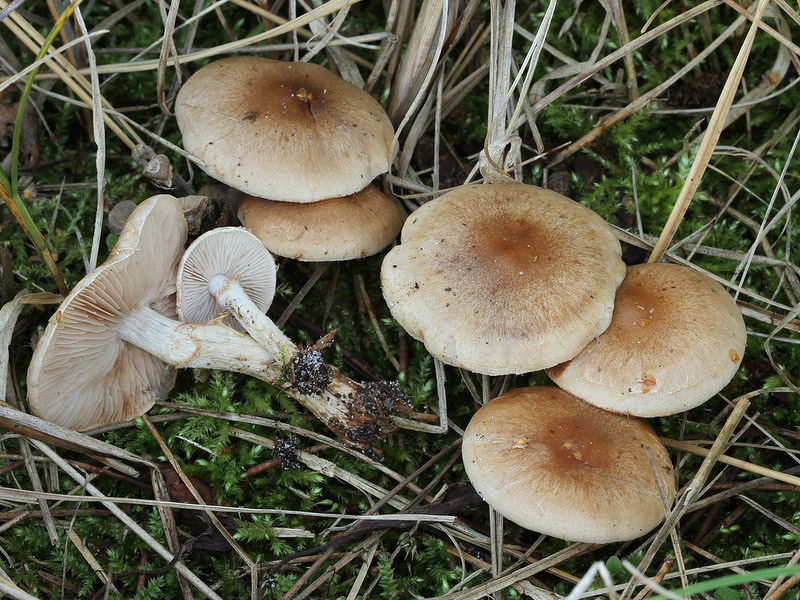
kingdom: Fungi
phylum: Basidiomycota
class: Agaricomycetes
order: Agaricales
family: Hymenogastraceae
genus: Hebeloma
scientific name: Hebeloma mesophaeum
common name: lerbrun tåreblad
